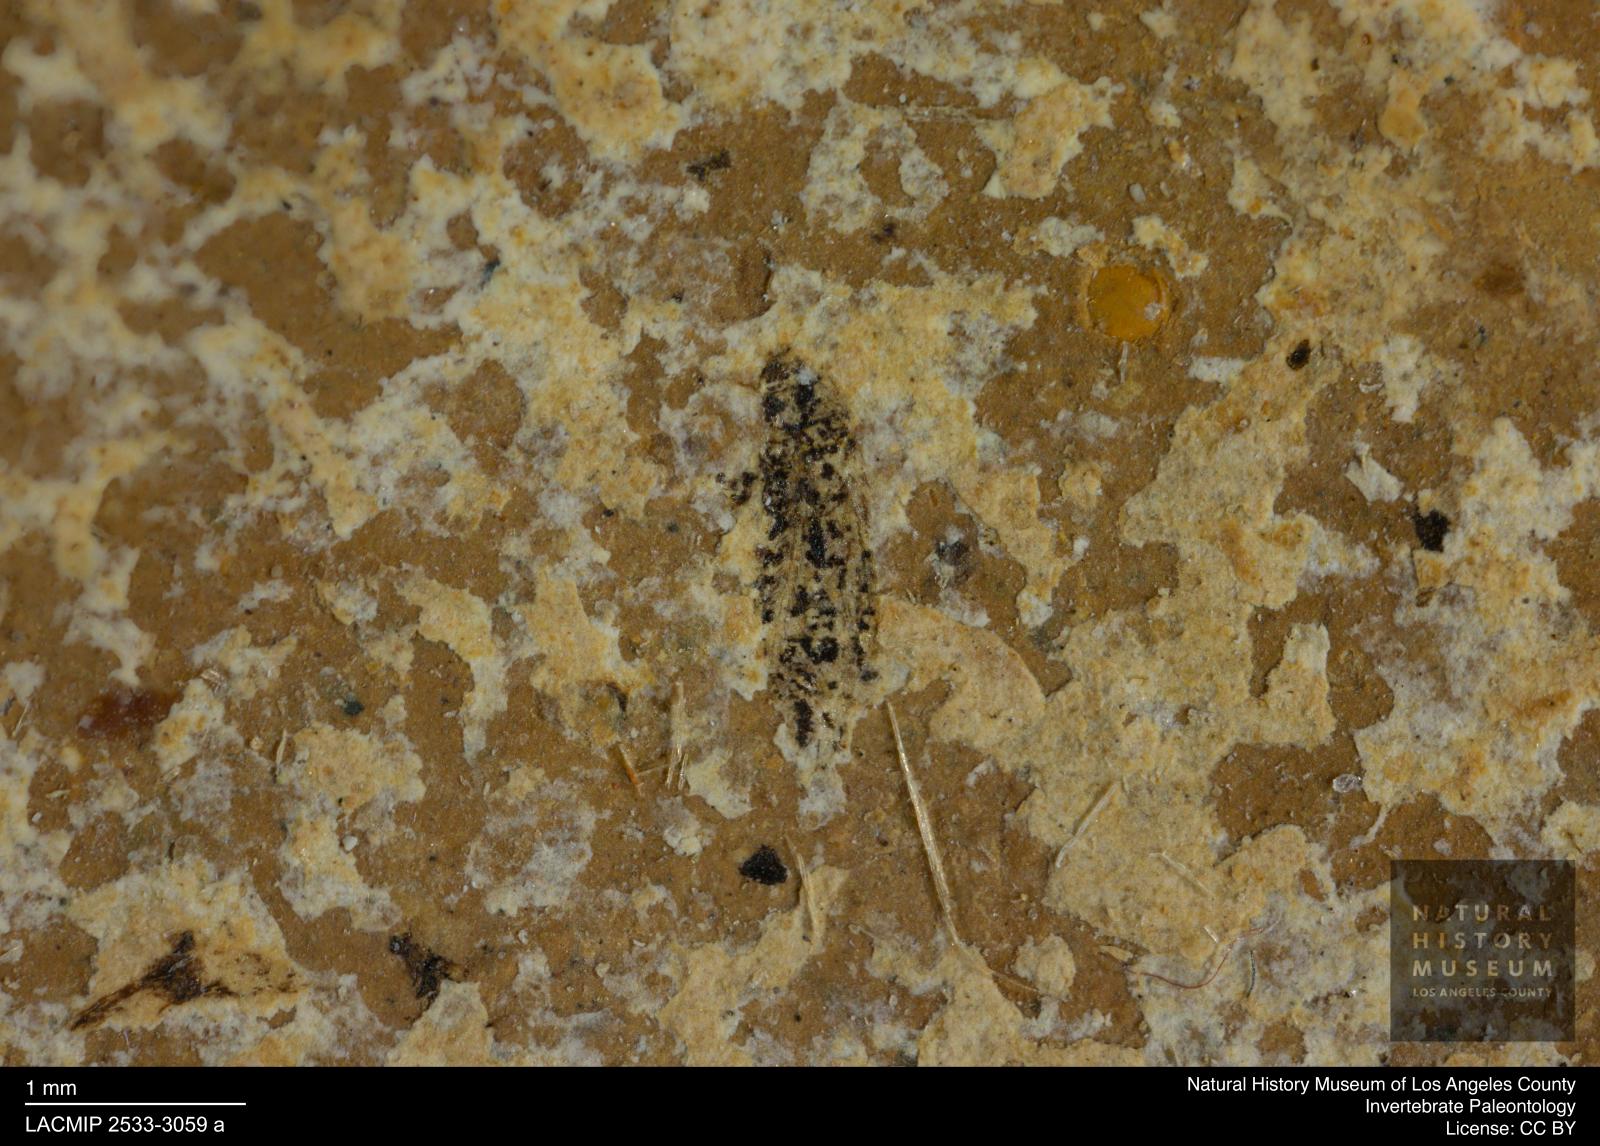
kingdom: Animalia
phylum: Arthropoda
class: Insecta
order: Thysanoptera
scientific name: Thysanoptera
